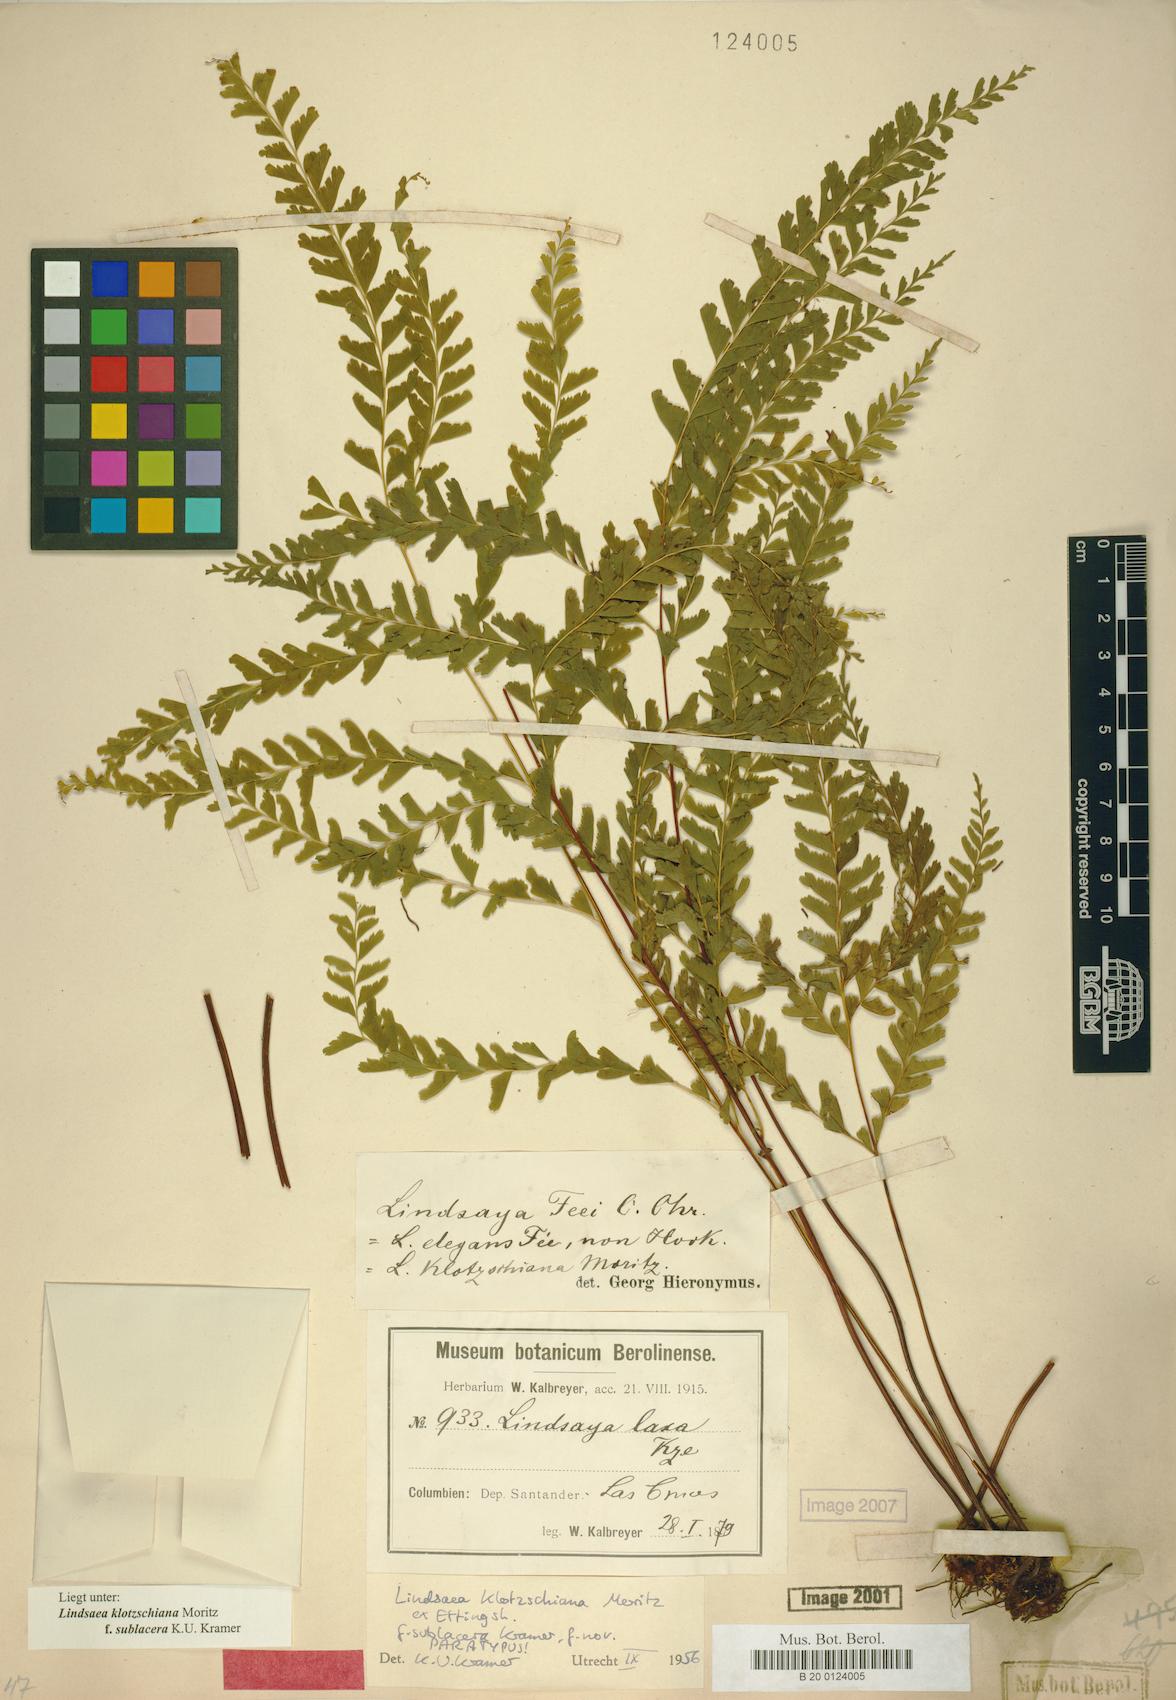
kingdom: Plantae
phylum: Tracheophyta
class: Polypodiopsida
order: Polypodiales
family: Lindsaeaceae
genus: Lindsaea
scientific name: Lindsaea feei
